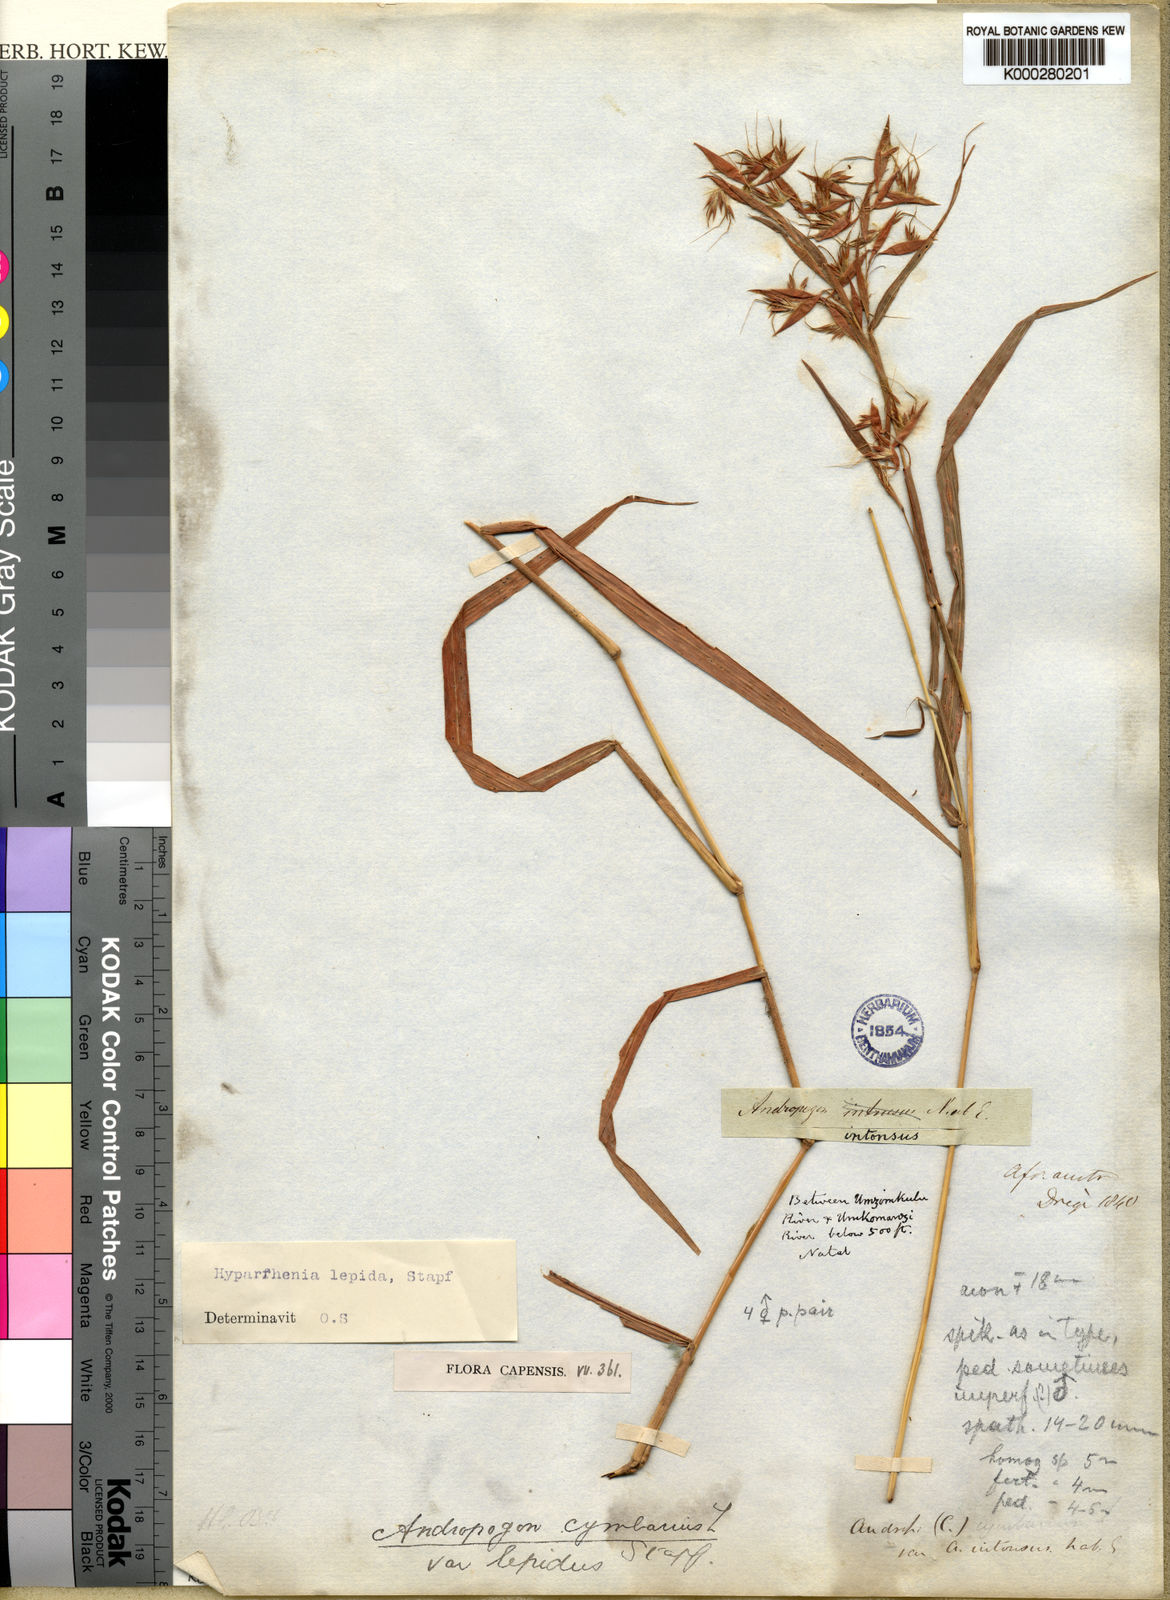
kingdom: Plantae
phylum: Tracheophyta
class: Liliopsida
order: Poales
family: Poaceae
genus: Hyparrhenia
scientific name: Hyparrhenia cymbaria
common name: Boat thatching grass
